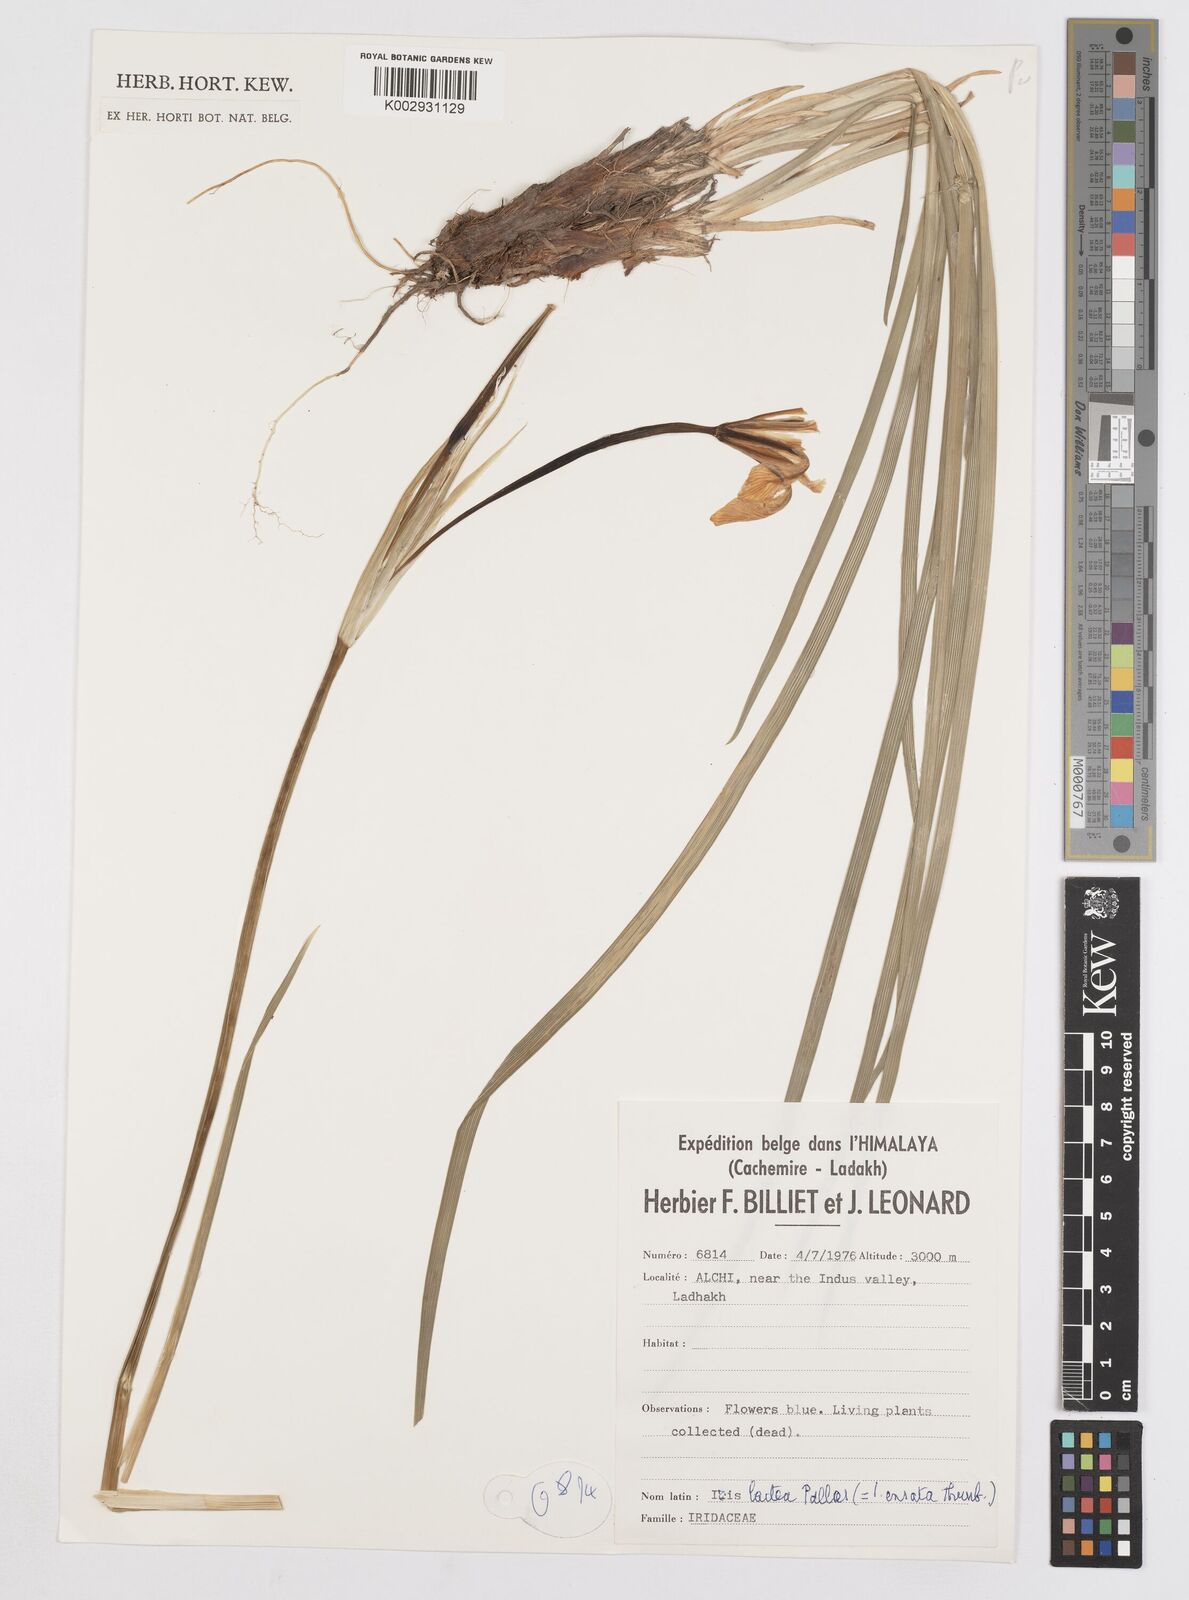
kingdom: Plantae
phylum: Tracheophyta
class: Liliopsida
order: Asparagales
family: Iridaceae
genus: Iris
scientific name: Iris lactea
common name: White-flower chinese iris
